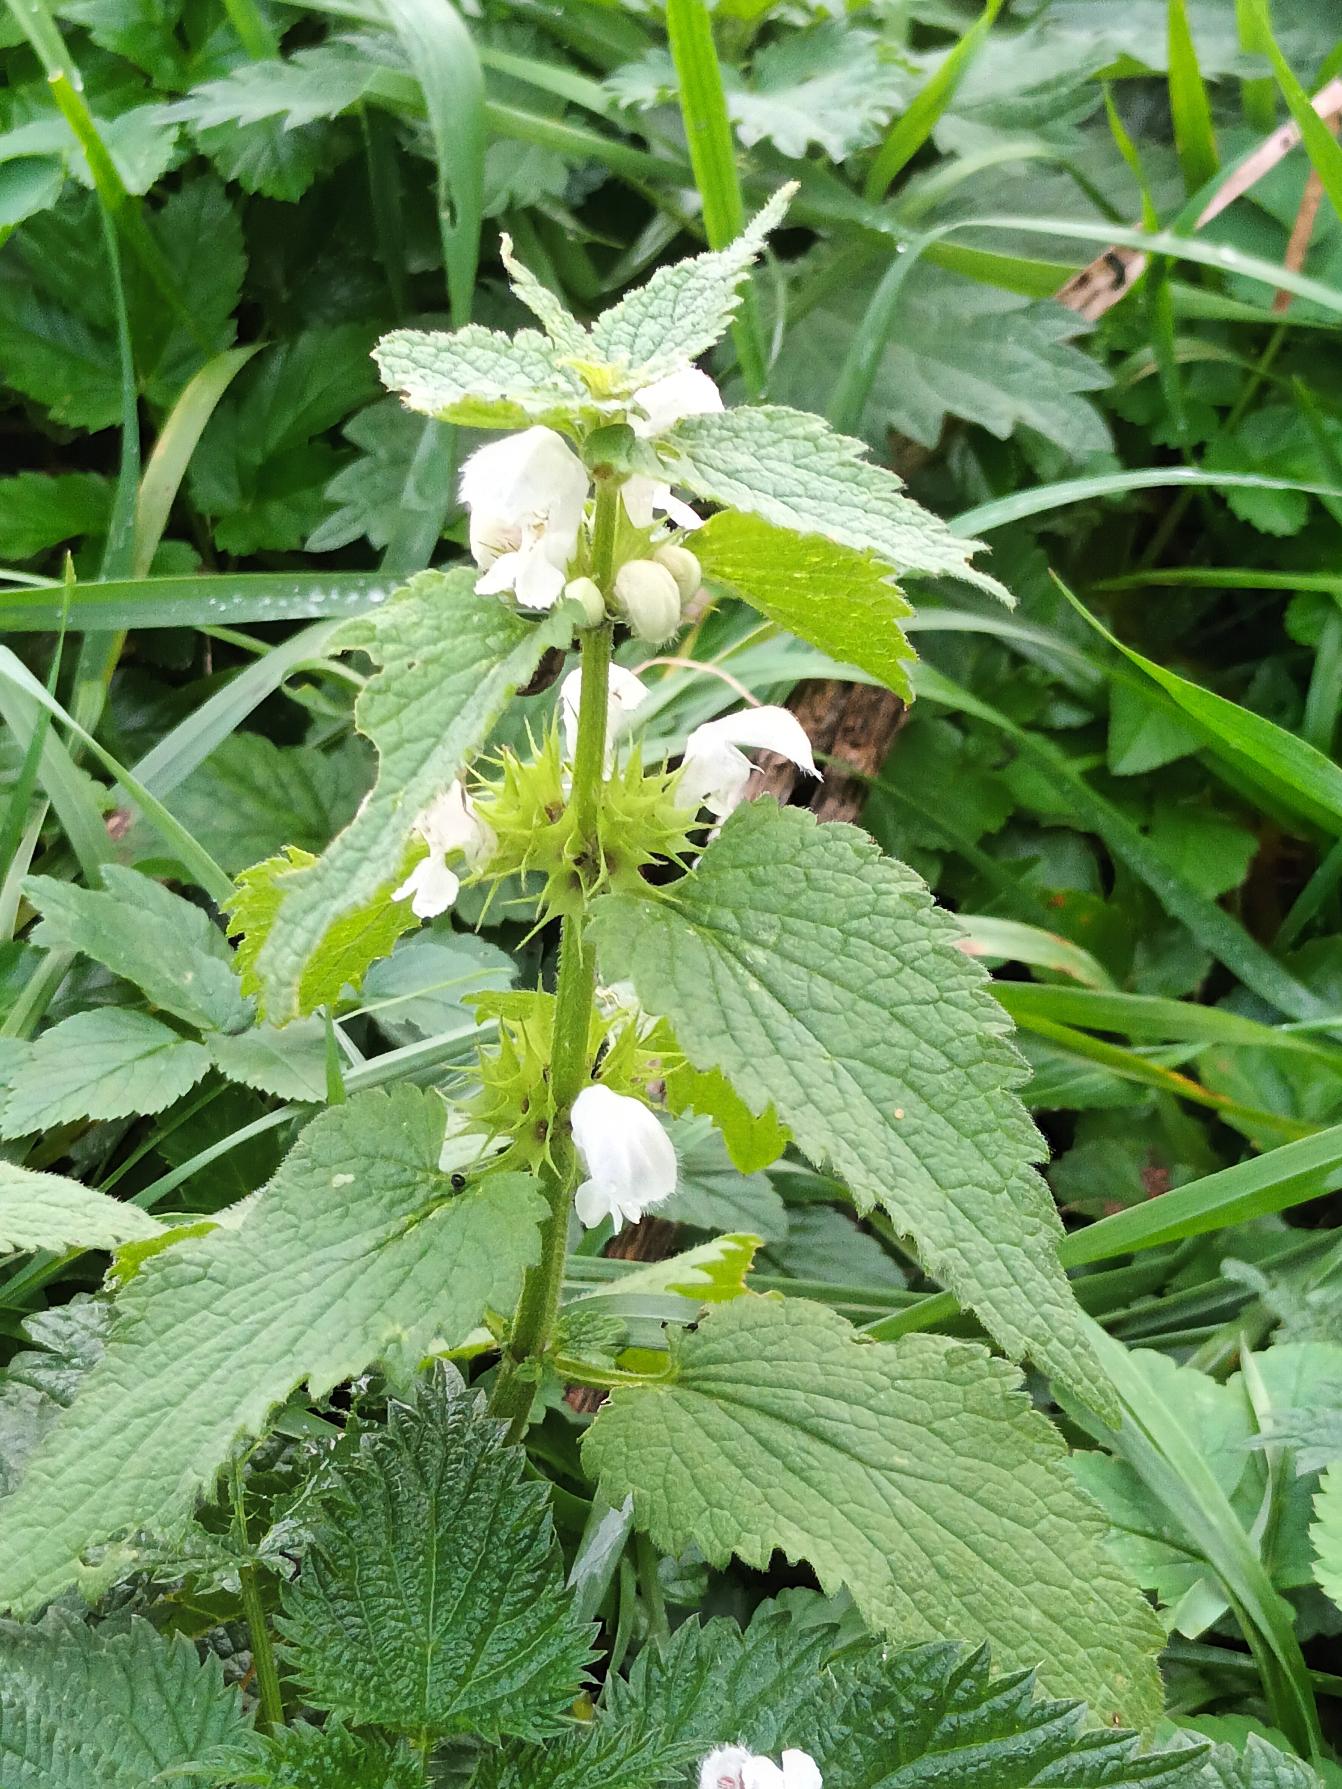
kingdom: Plantae
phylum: Tracheophyta
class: Magnoliopsida
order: Lamiales
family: Lamiaceae
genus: Lamium
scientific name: Lamium album
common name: Døvnælde
